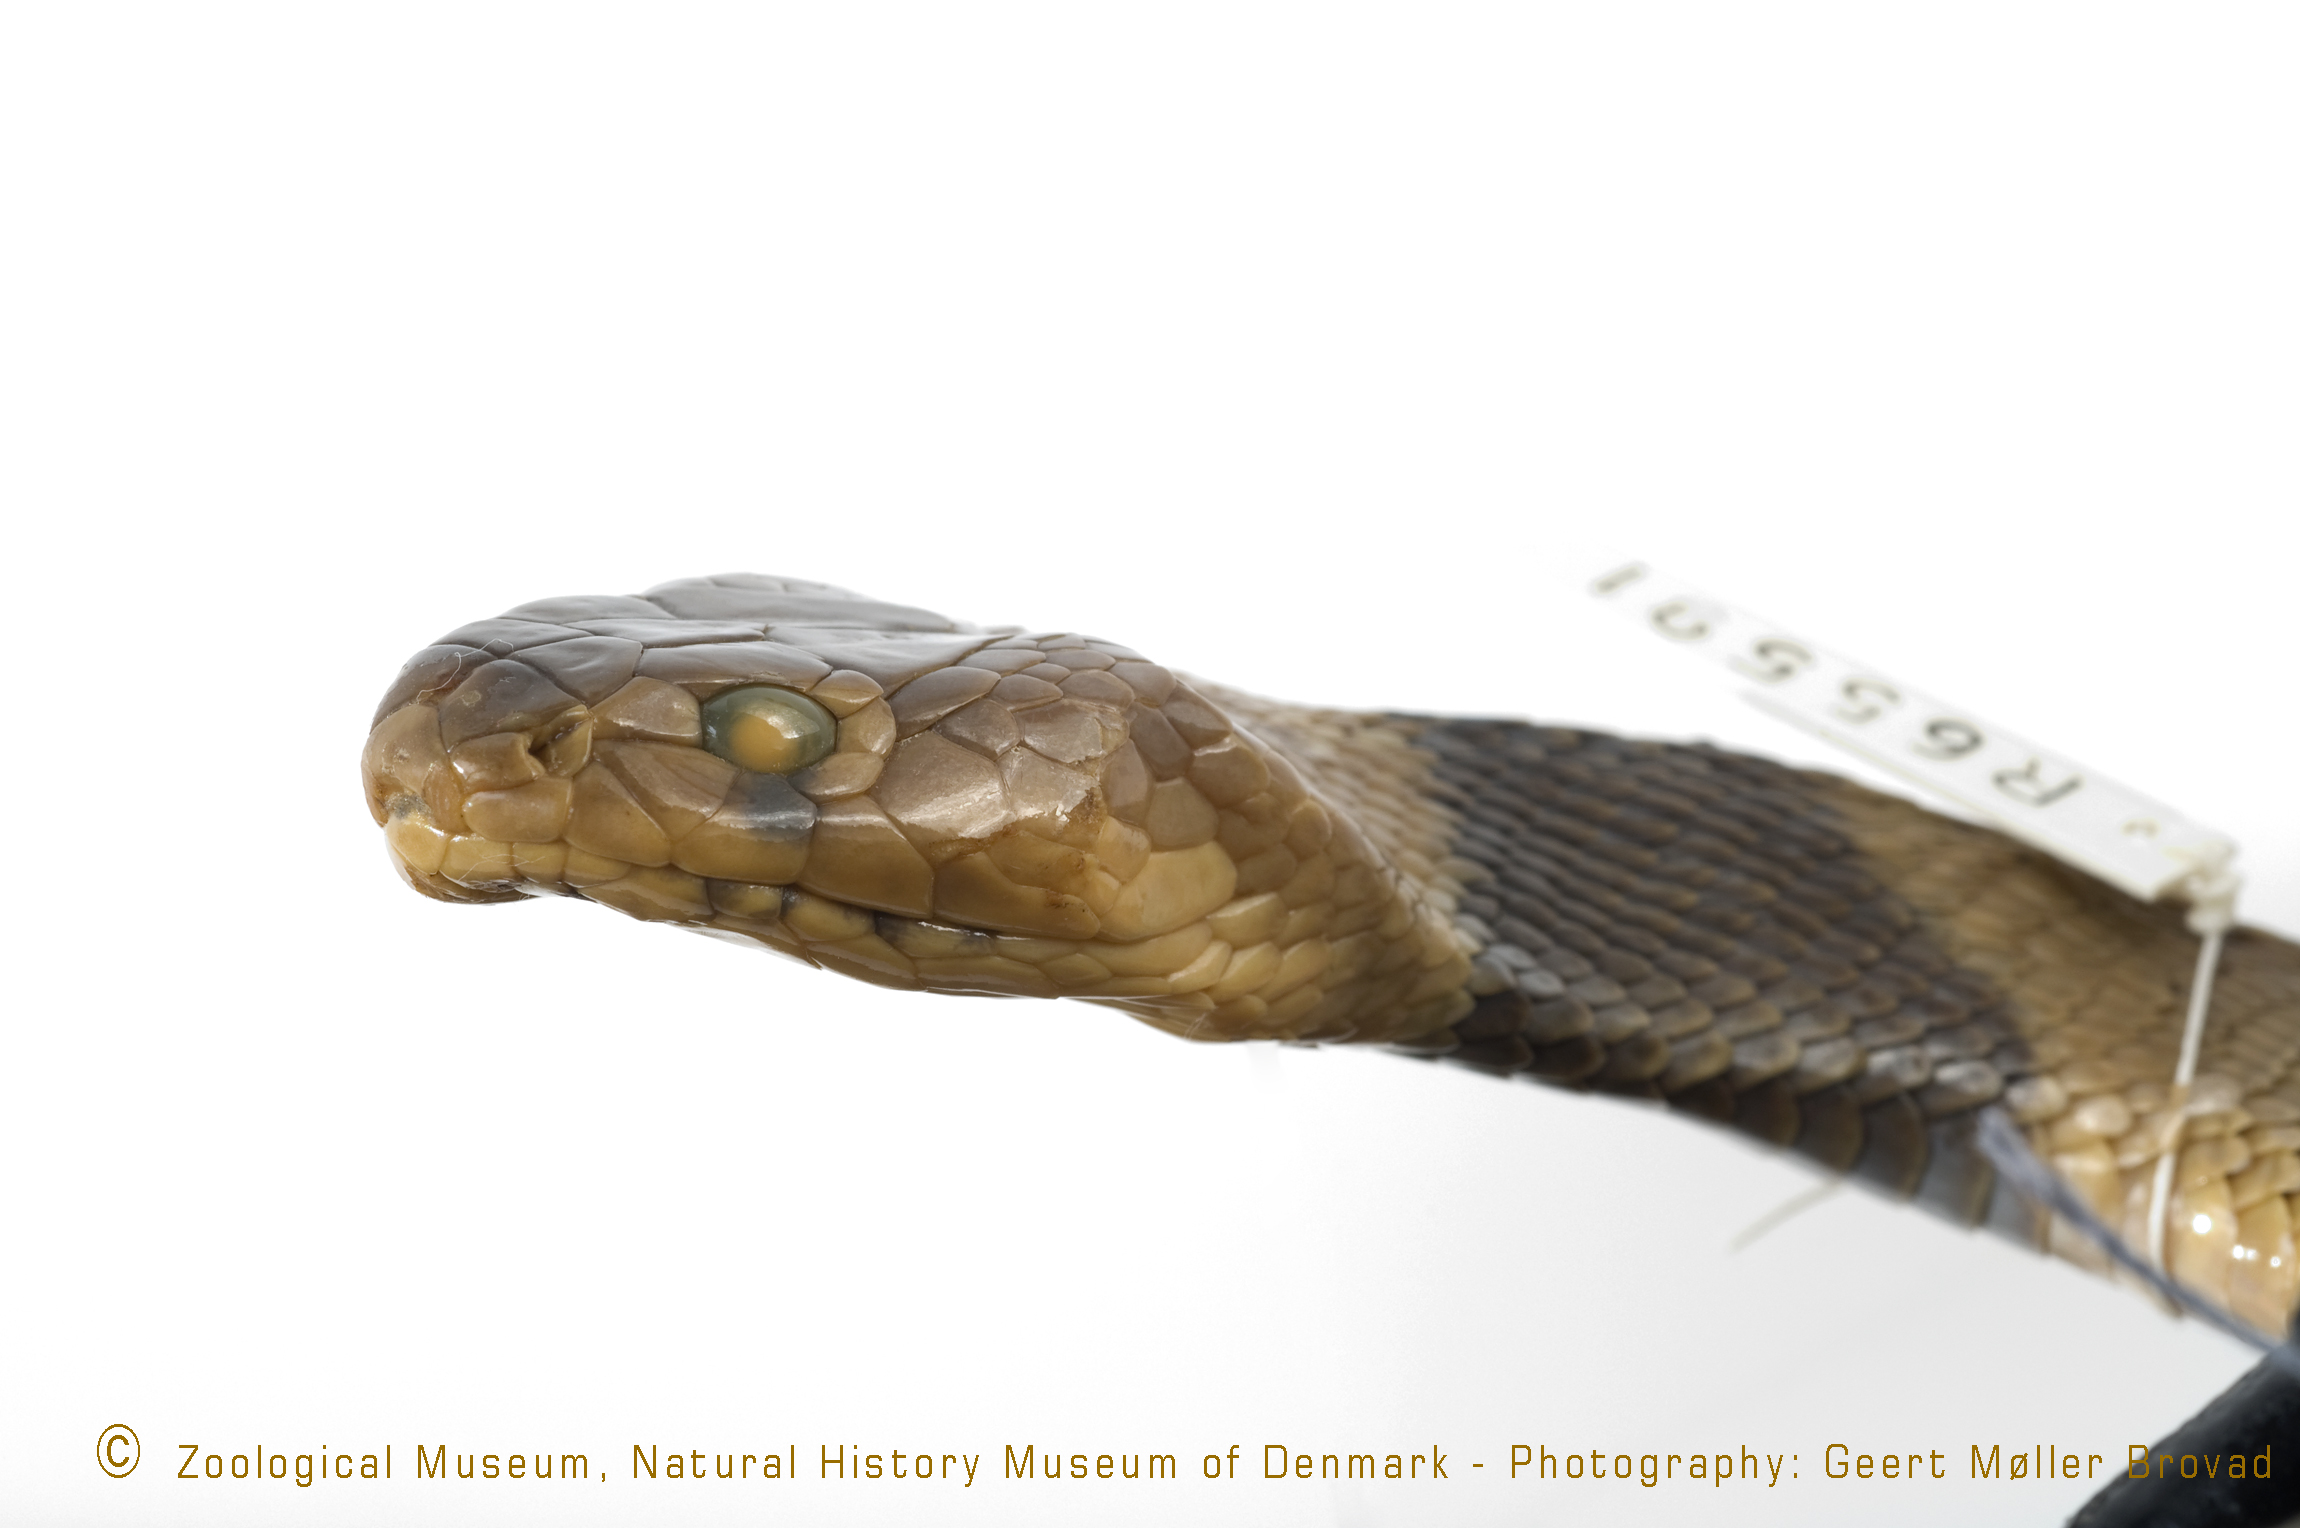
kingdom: Animalia
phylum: Chordata
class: Squamata
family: Elapidae
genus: Naja
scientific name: Naja pallida
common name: African cobra
